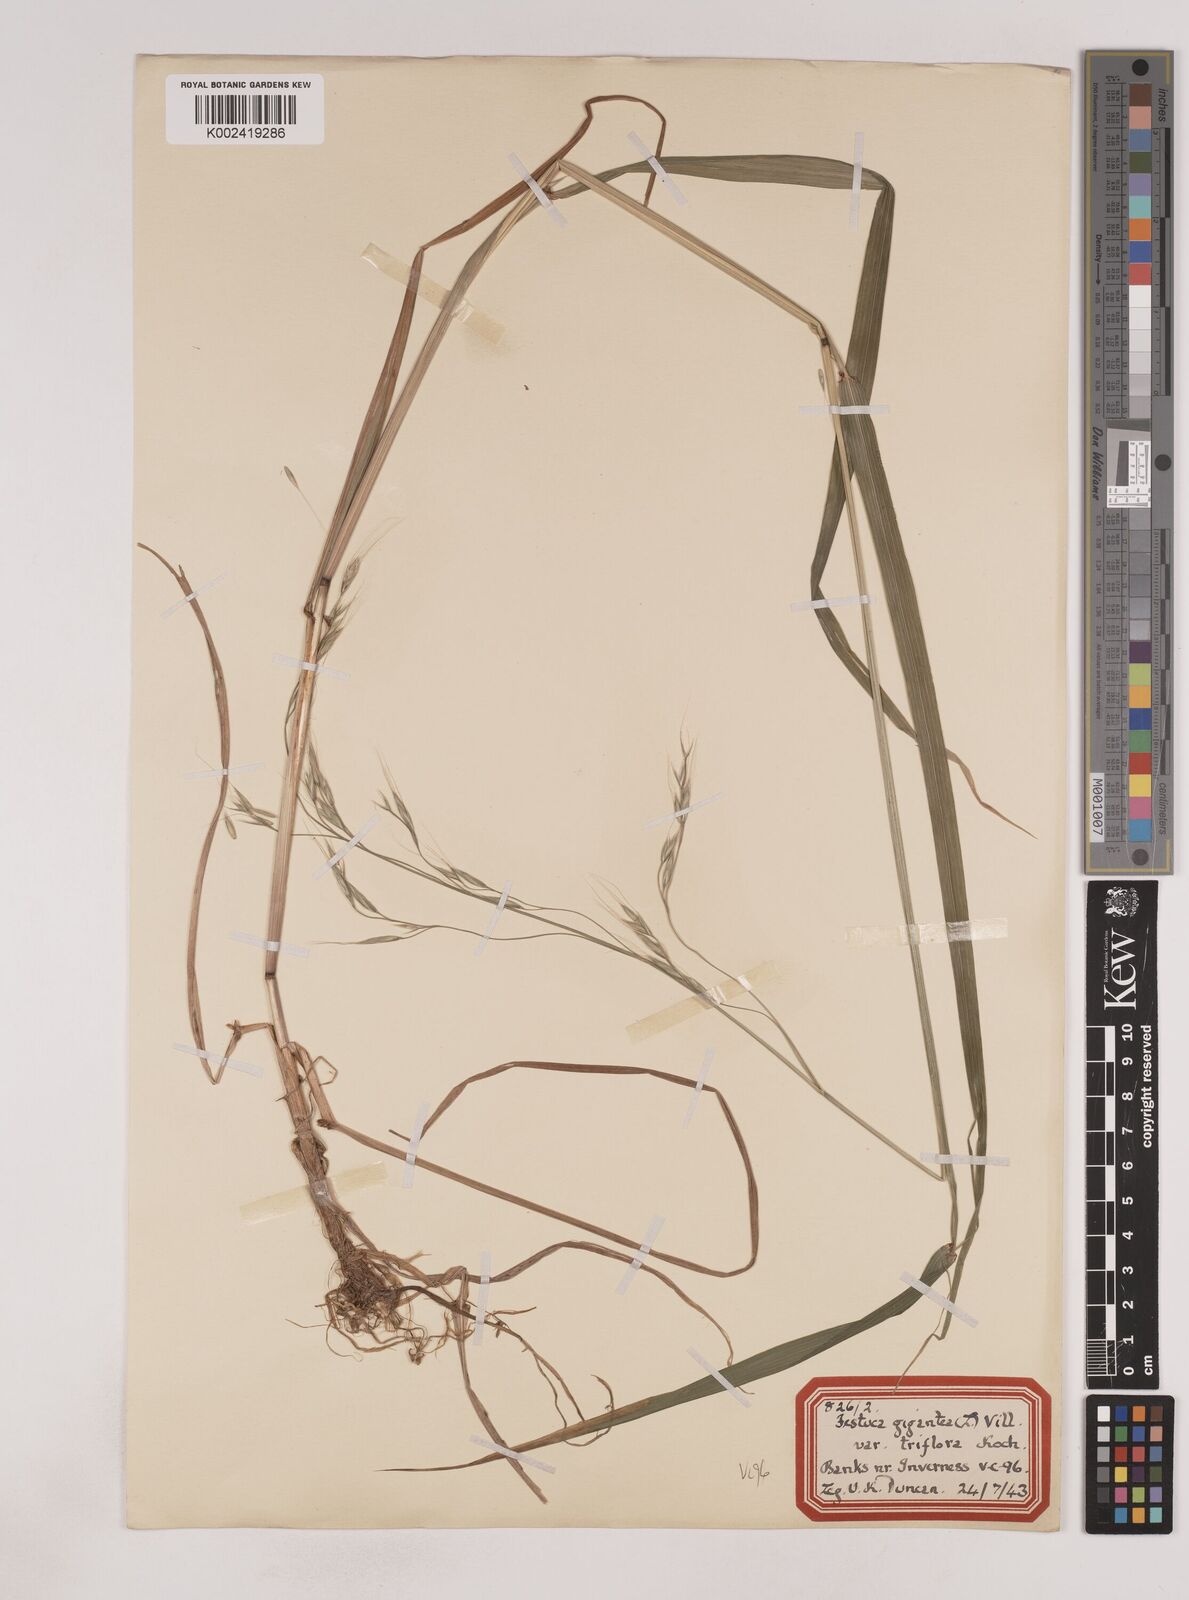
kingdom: Plantae
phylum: Tracheophyta
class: Liliopsida
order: Poales
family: Poaceae
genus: Lolium
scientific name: Lolium giganteum
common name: Giant fescue
